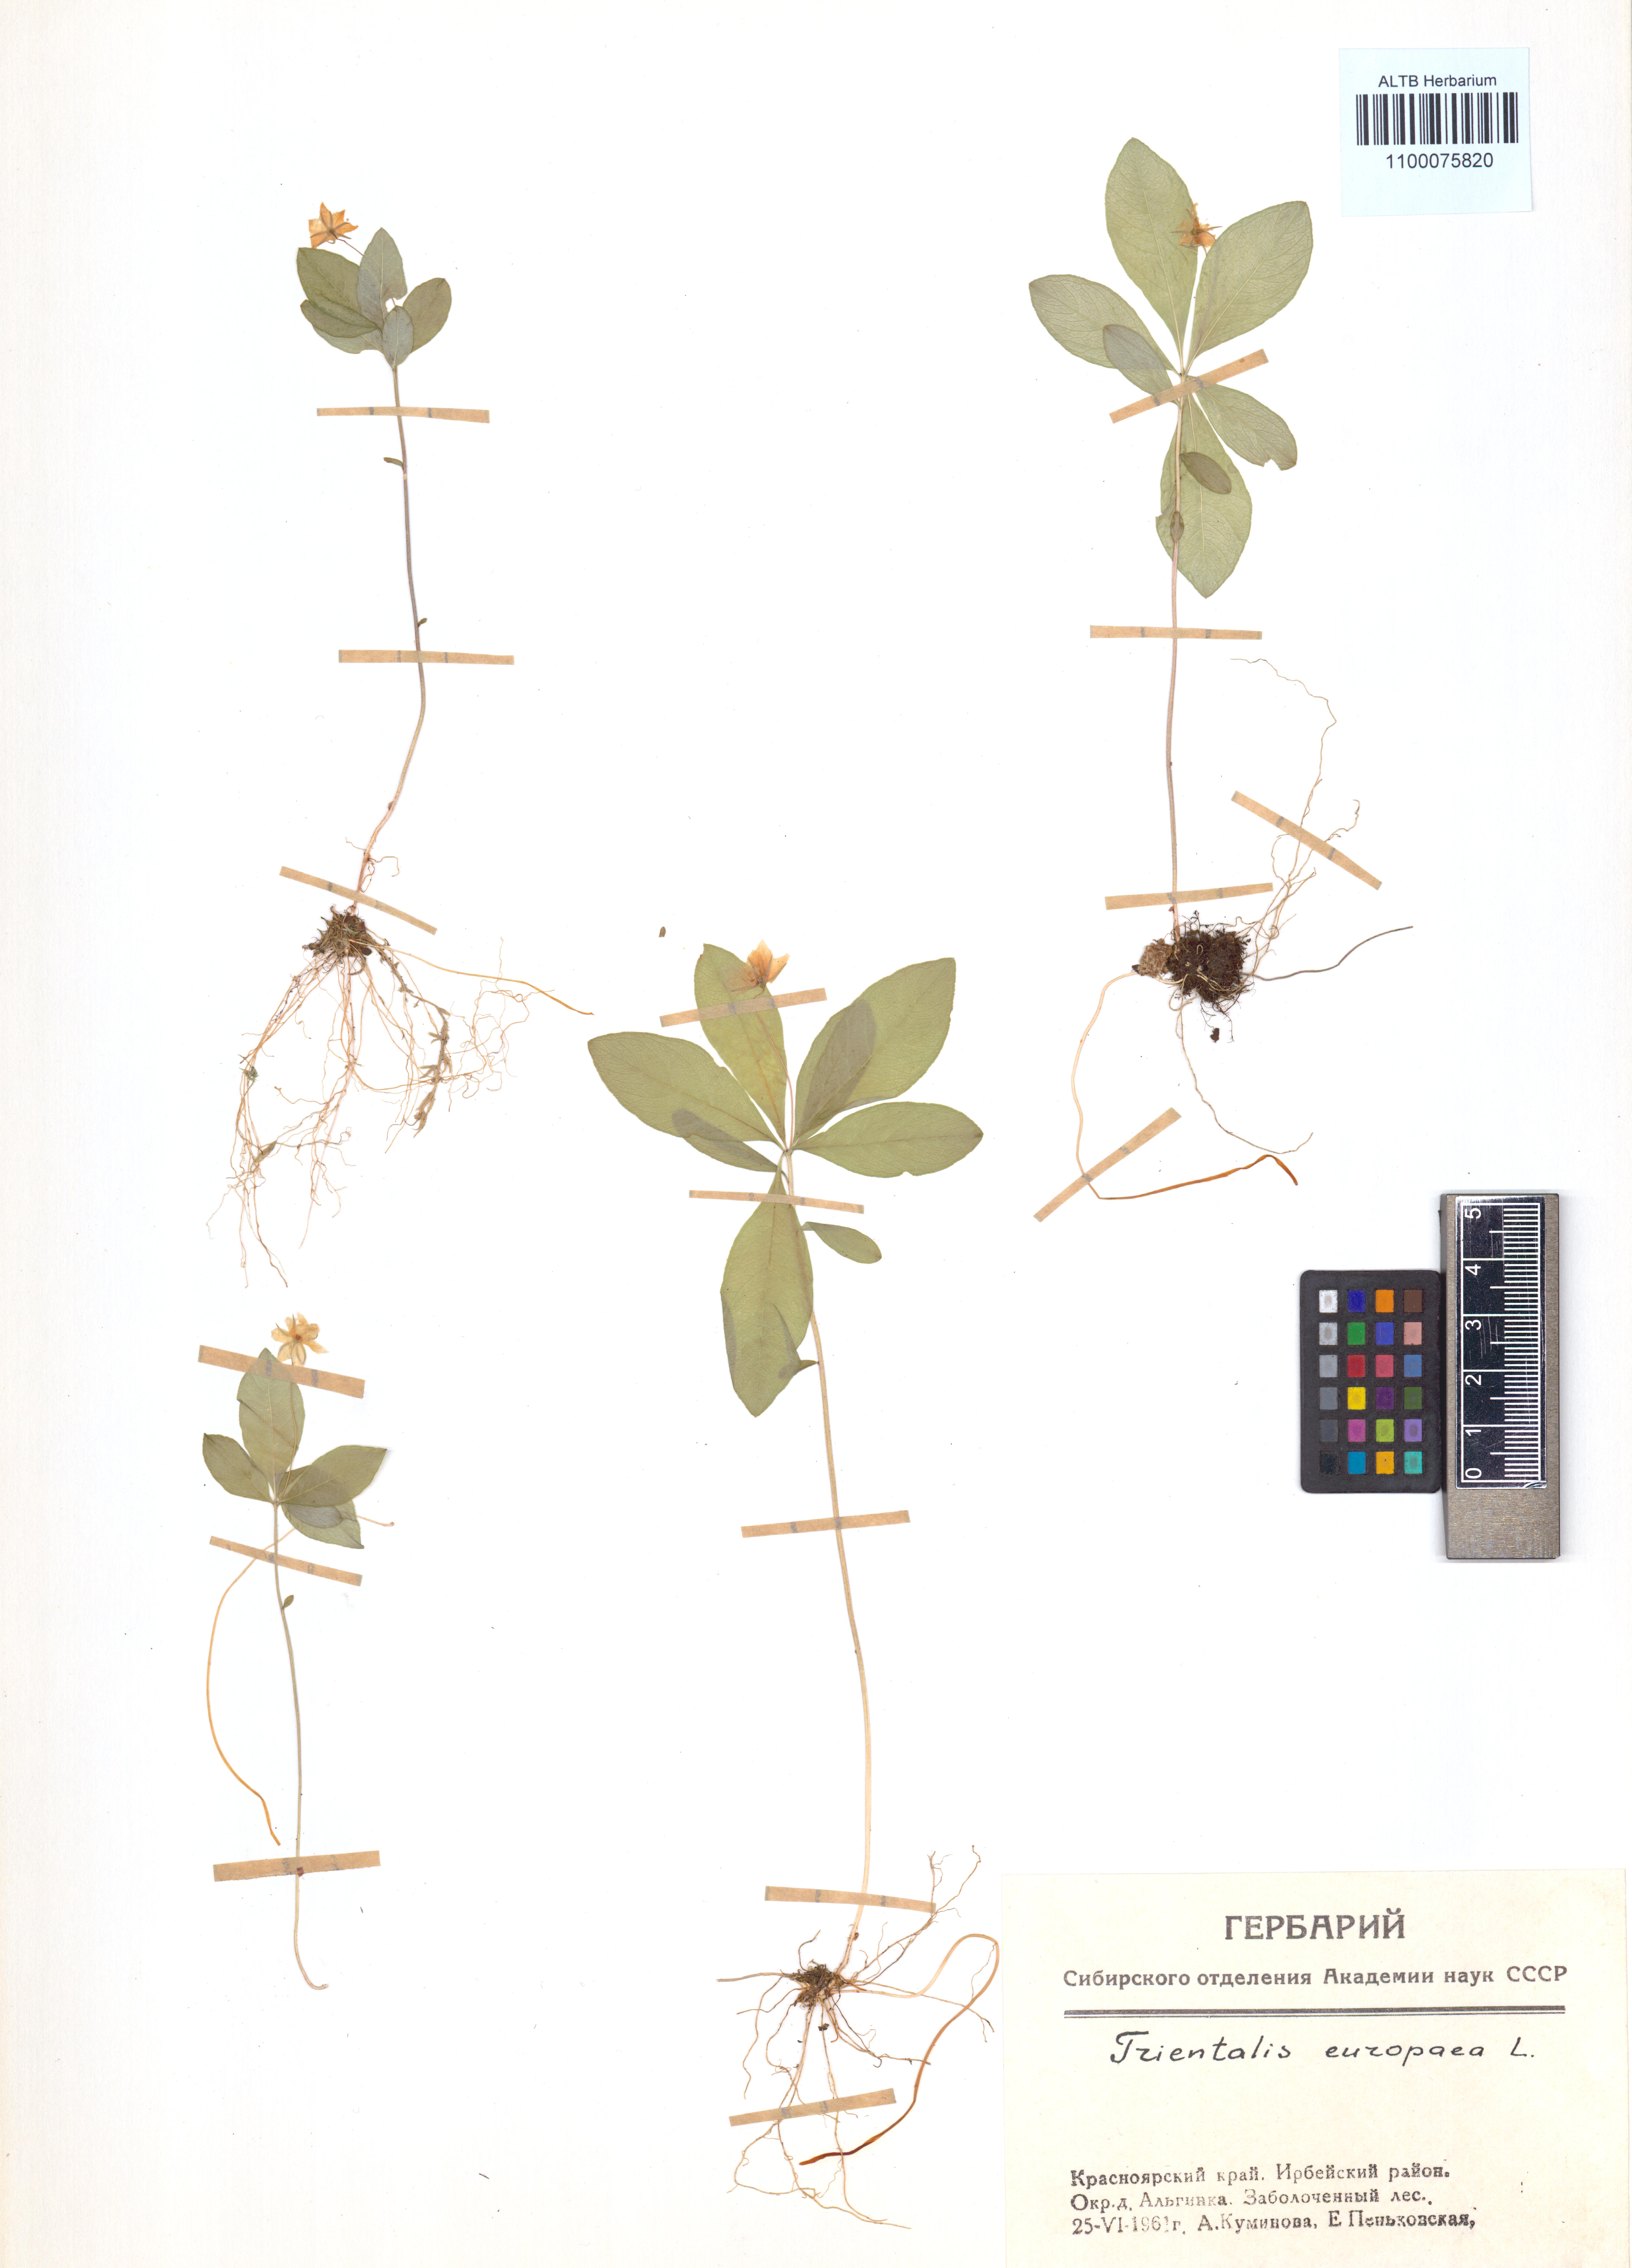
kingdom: Plantae
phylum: Tracheophyta
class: Magnoliopsida
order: Ericales
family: Primulaceae
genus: Lysimachia
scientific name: Lysimachia europaea
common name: Arctic starflower
